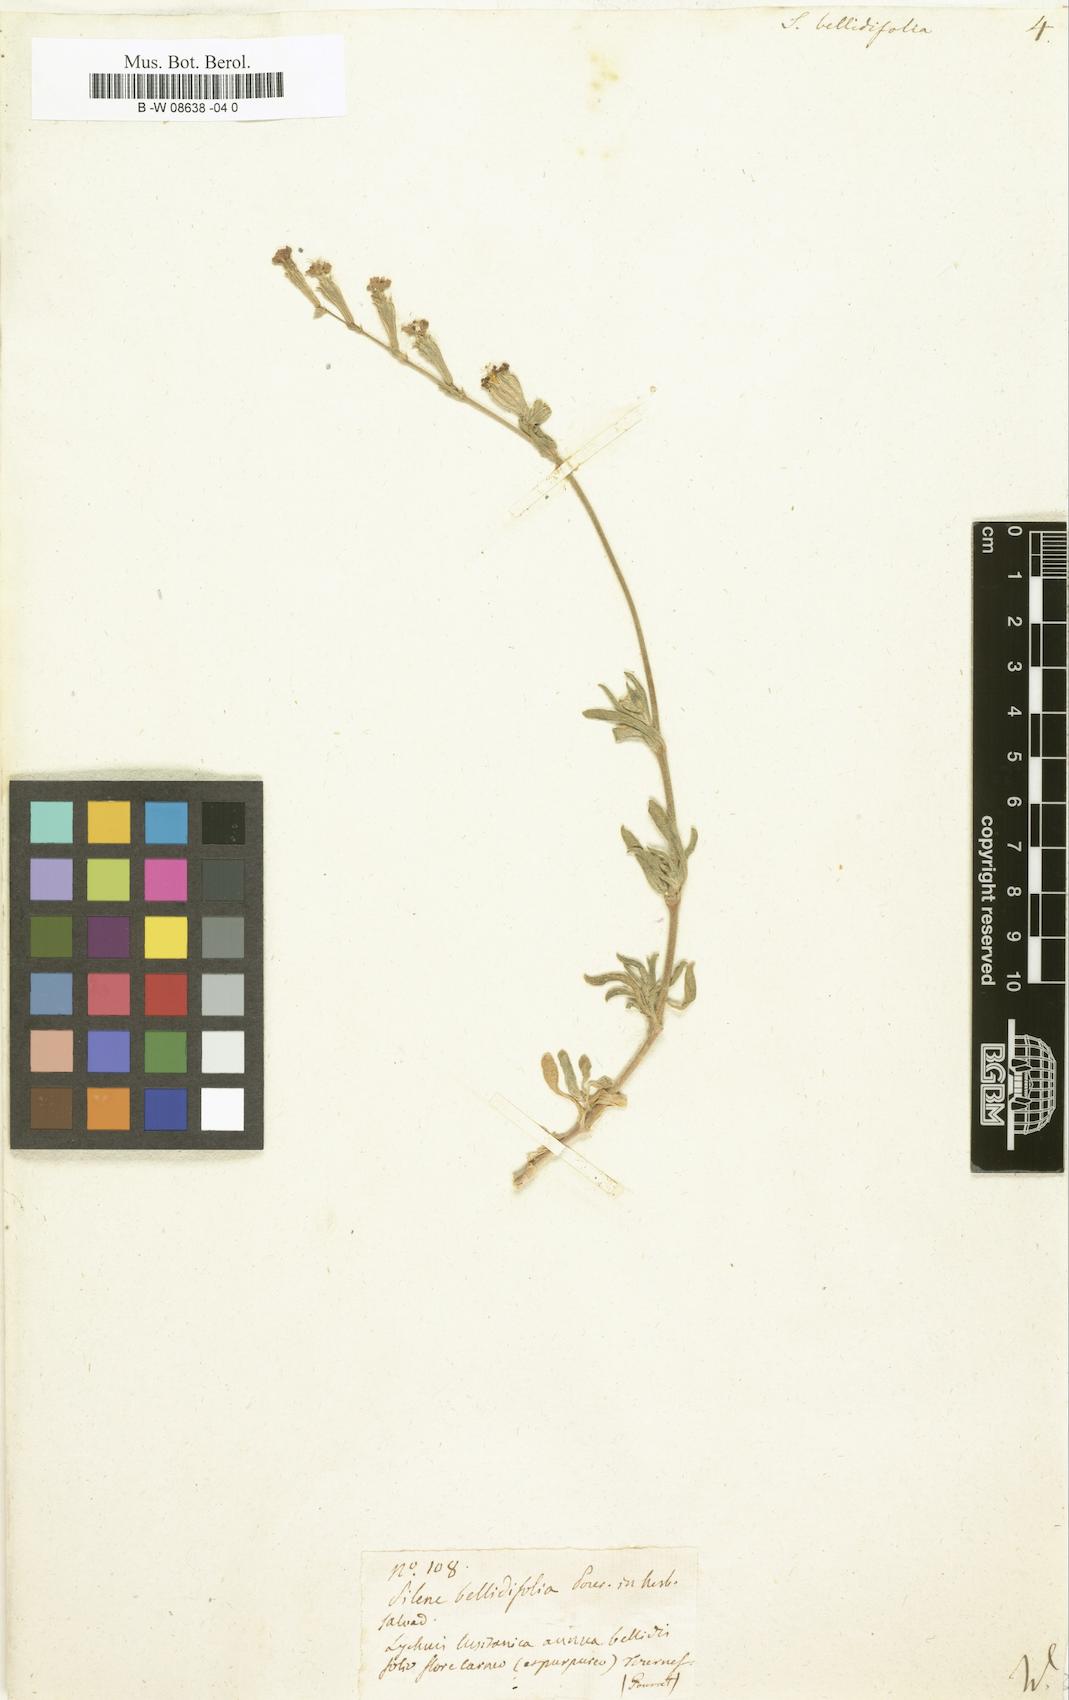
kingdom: Plantae
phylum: Tracheophyta
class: Magnoliopsida
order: Caryophyllales
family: Caryophyllaceae
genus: Silene
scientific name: Silene bellidifolia
